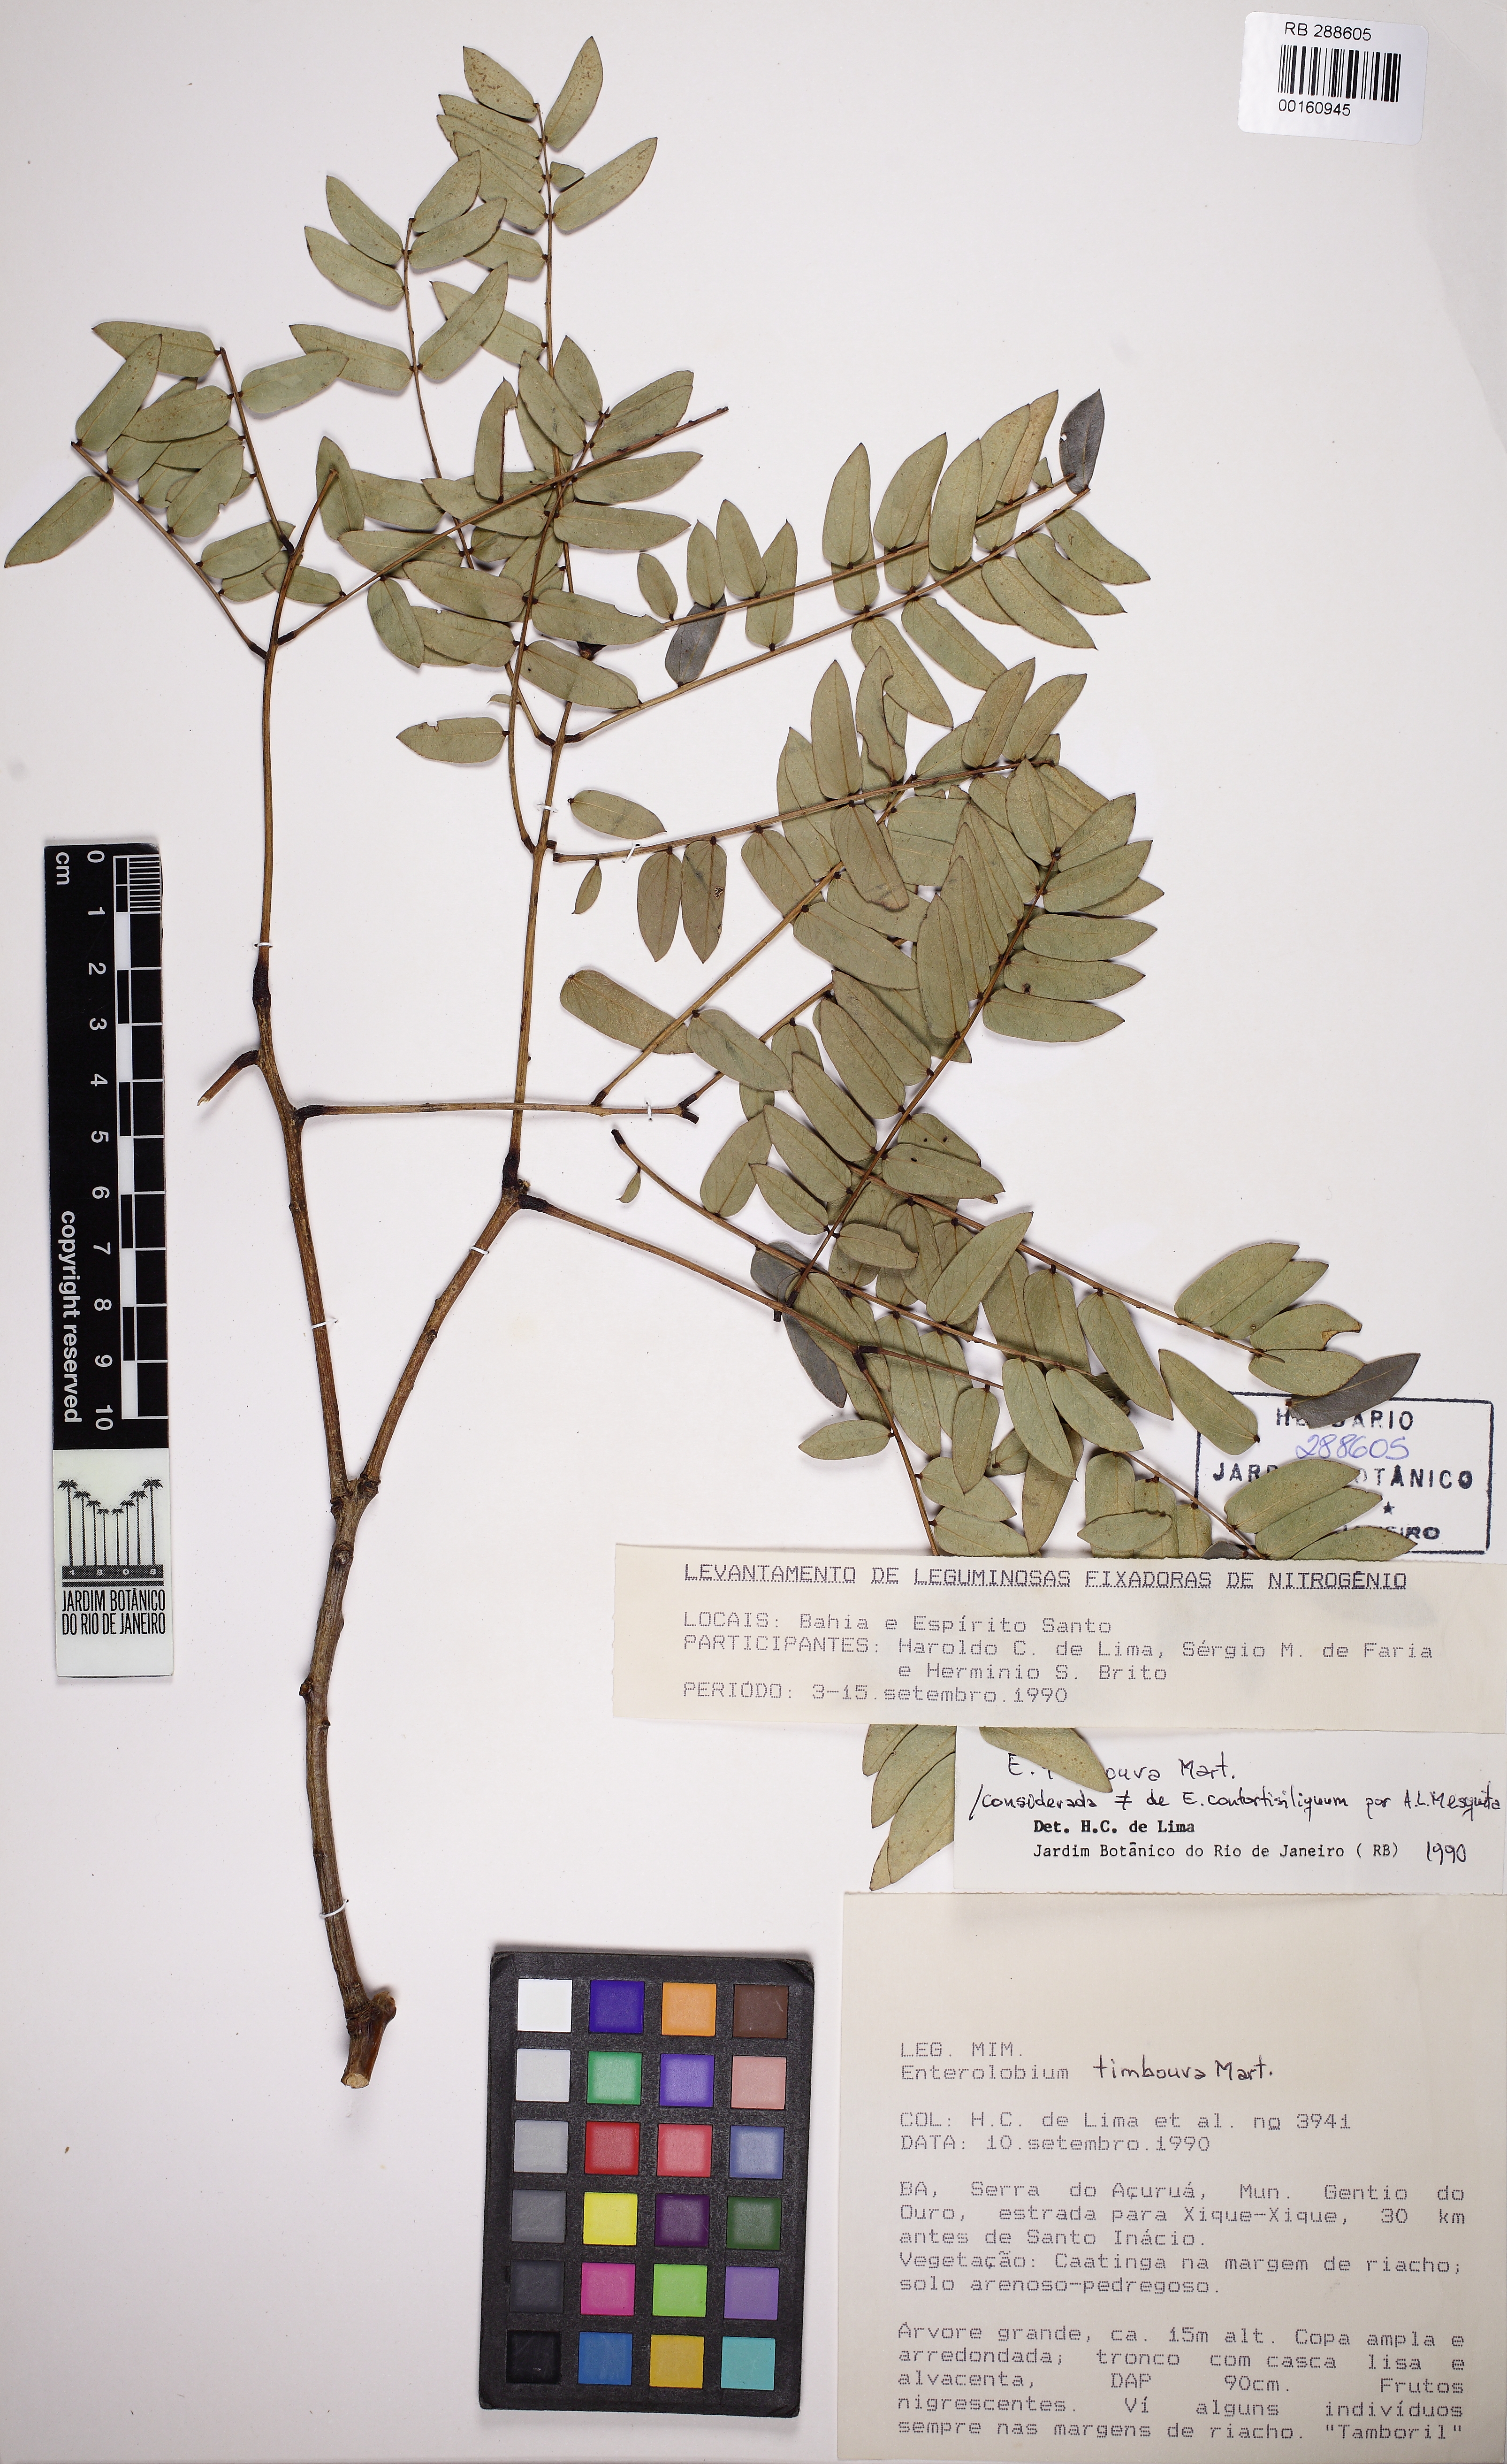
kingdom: Plantae
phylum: Tracheophyta
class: Magnoliopsida
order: Fabales
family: Fabaceae
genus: Enterolobium
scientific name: Enterolobium timbouva
